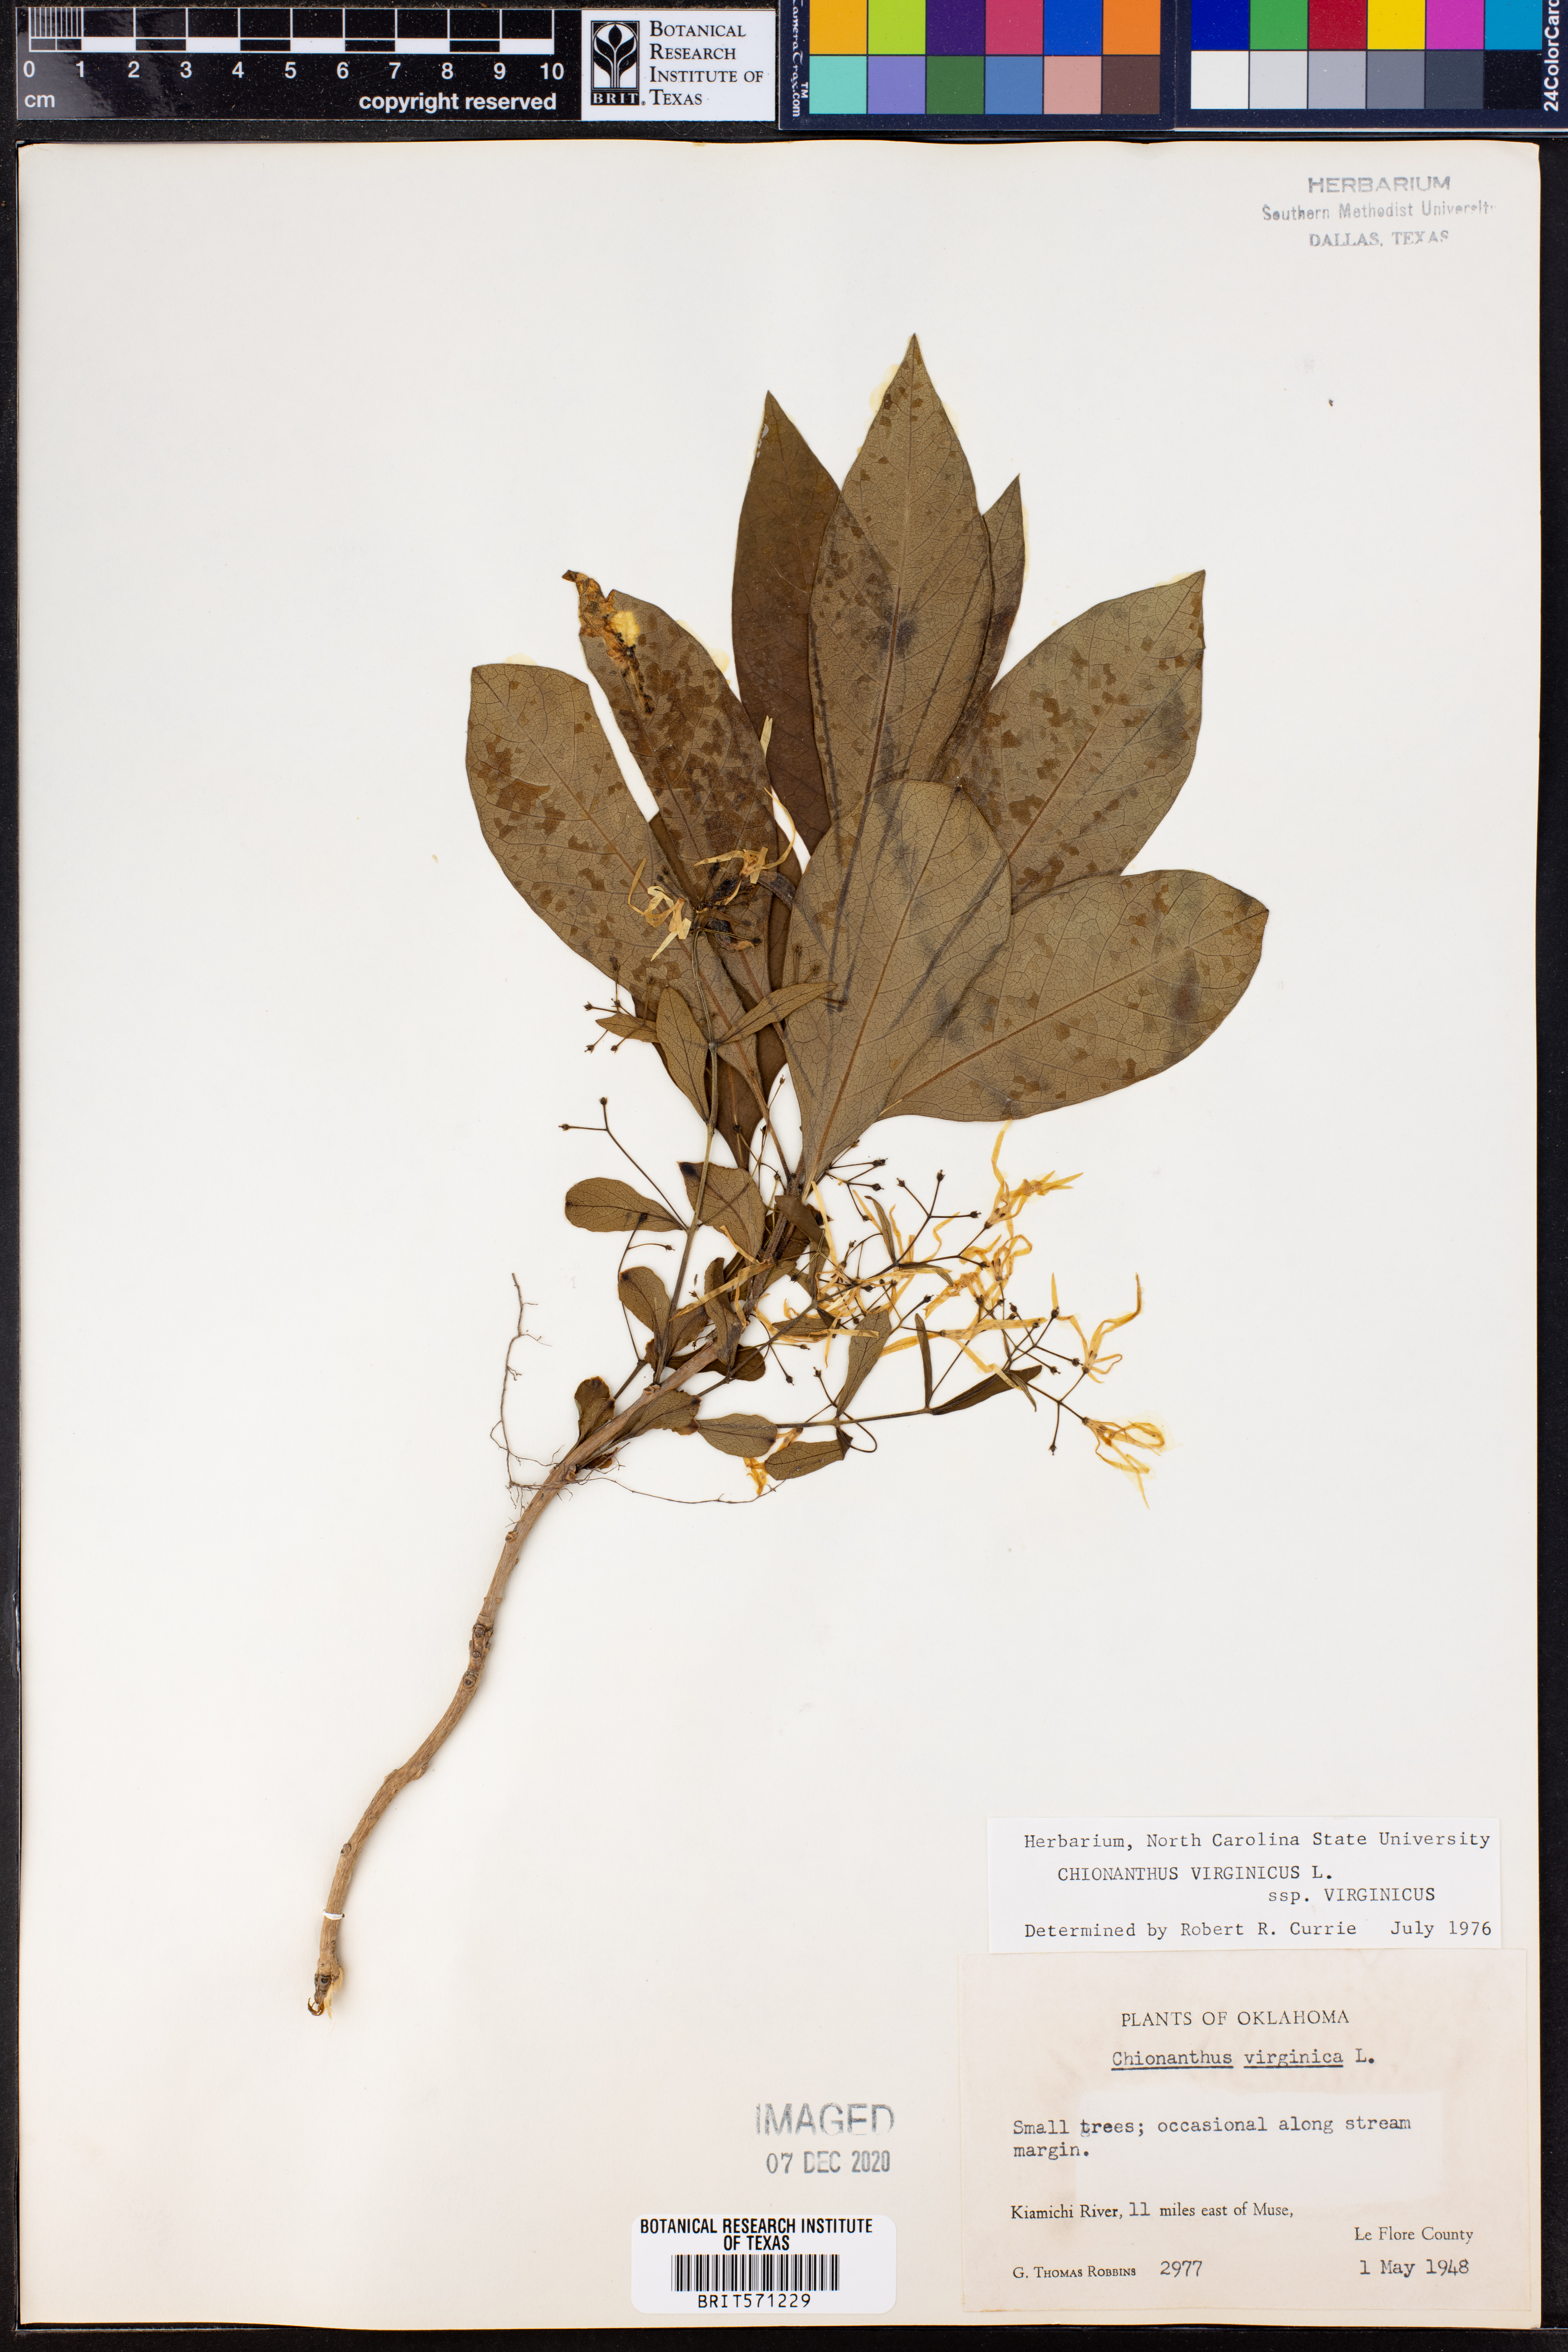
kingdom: Plantae
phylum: Tracheophyta
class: Magnoliopsida
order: Lamiales
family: Oleaceae
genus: Chionanthus
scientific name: Chionanthus virginicus
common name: American fringetree
